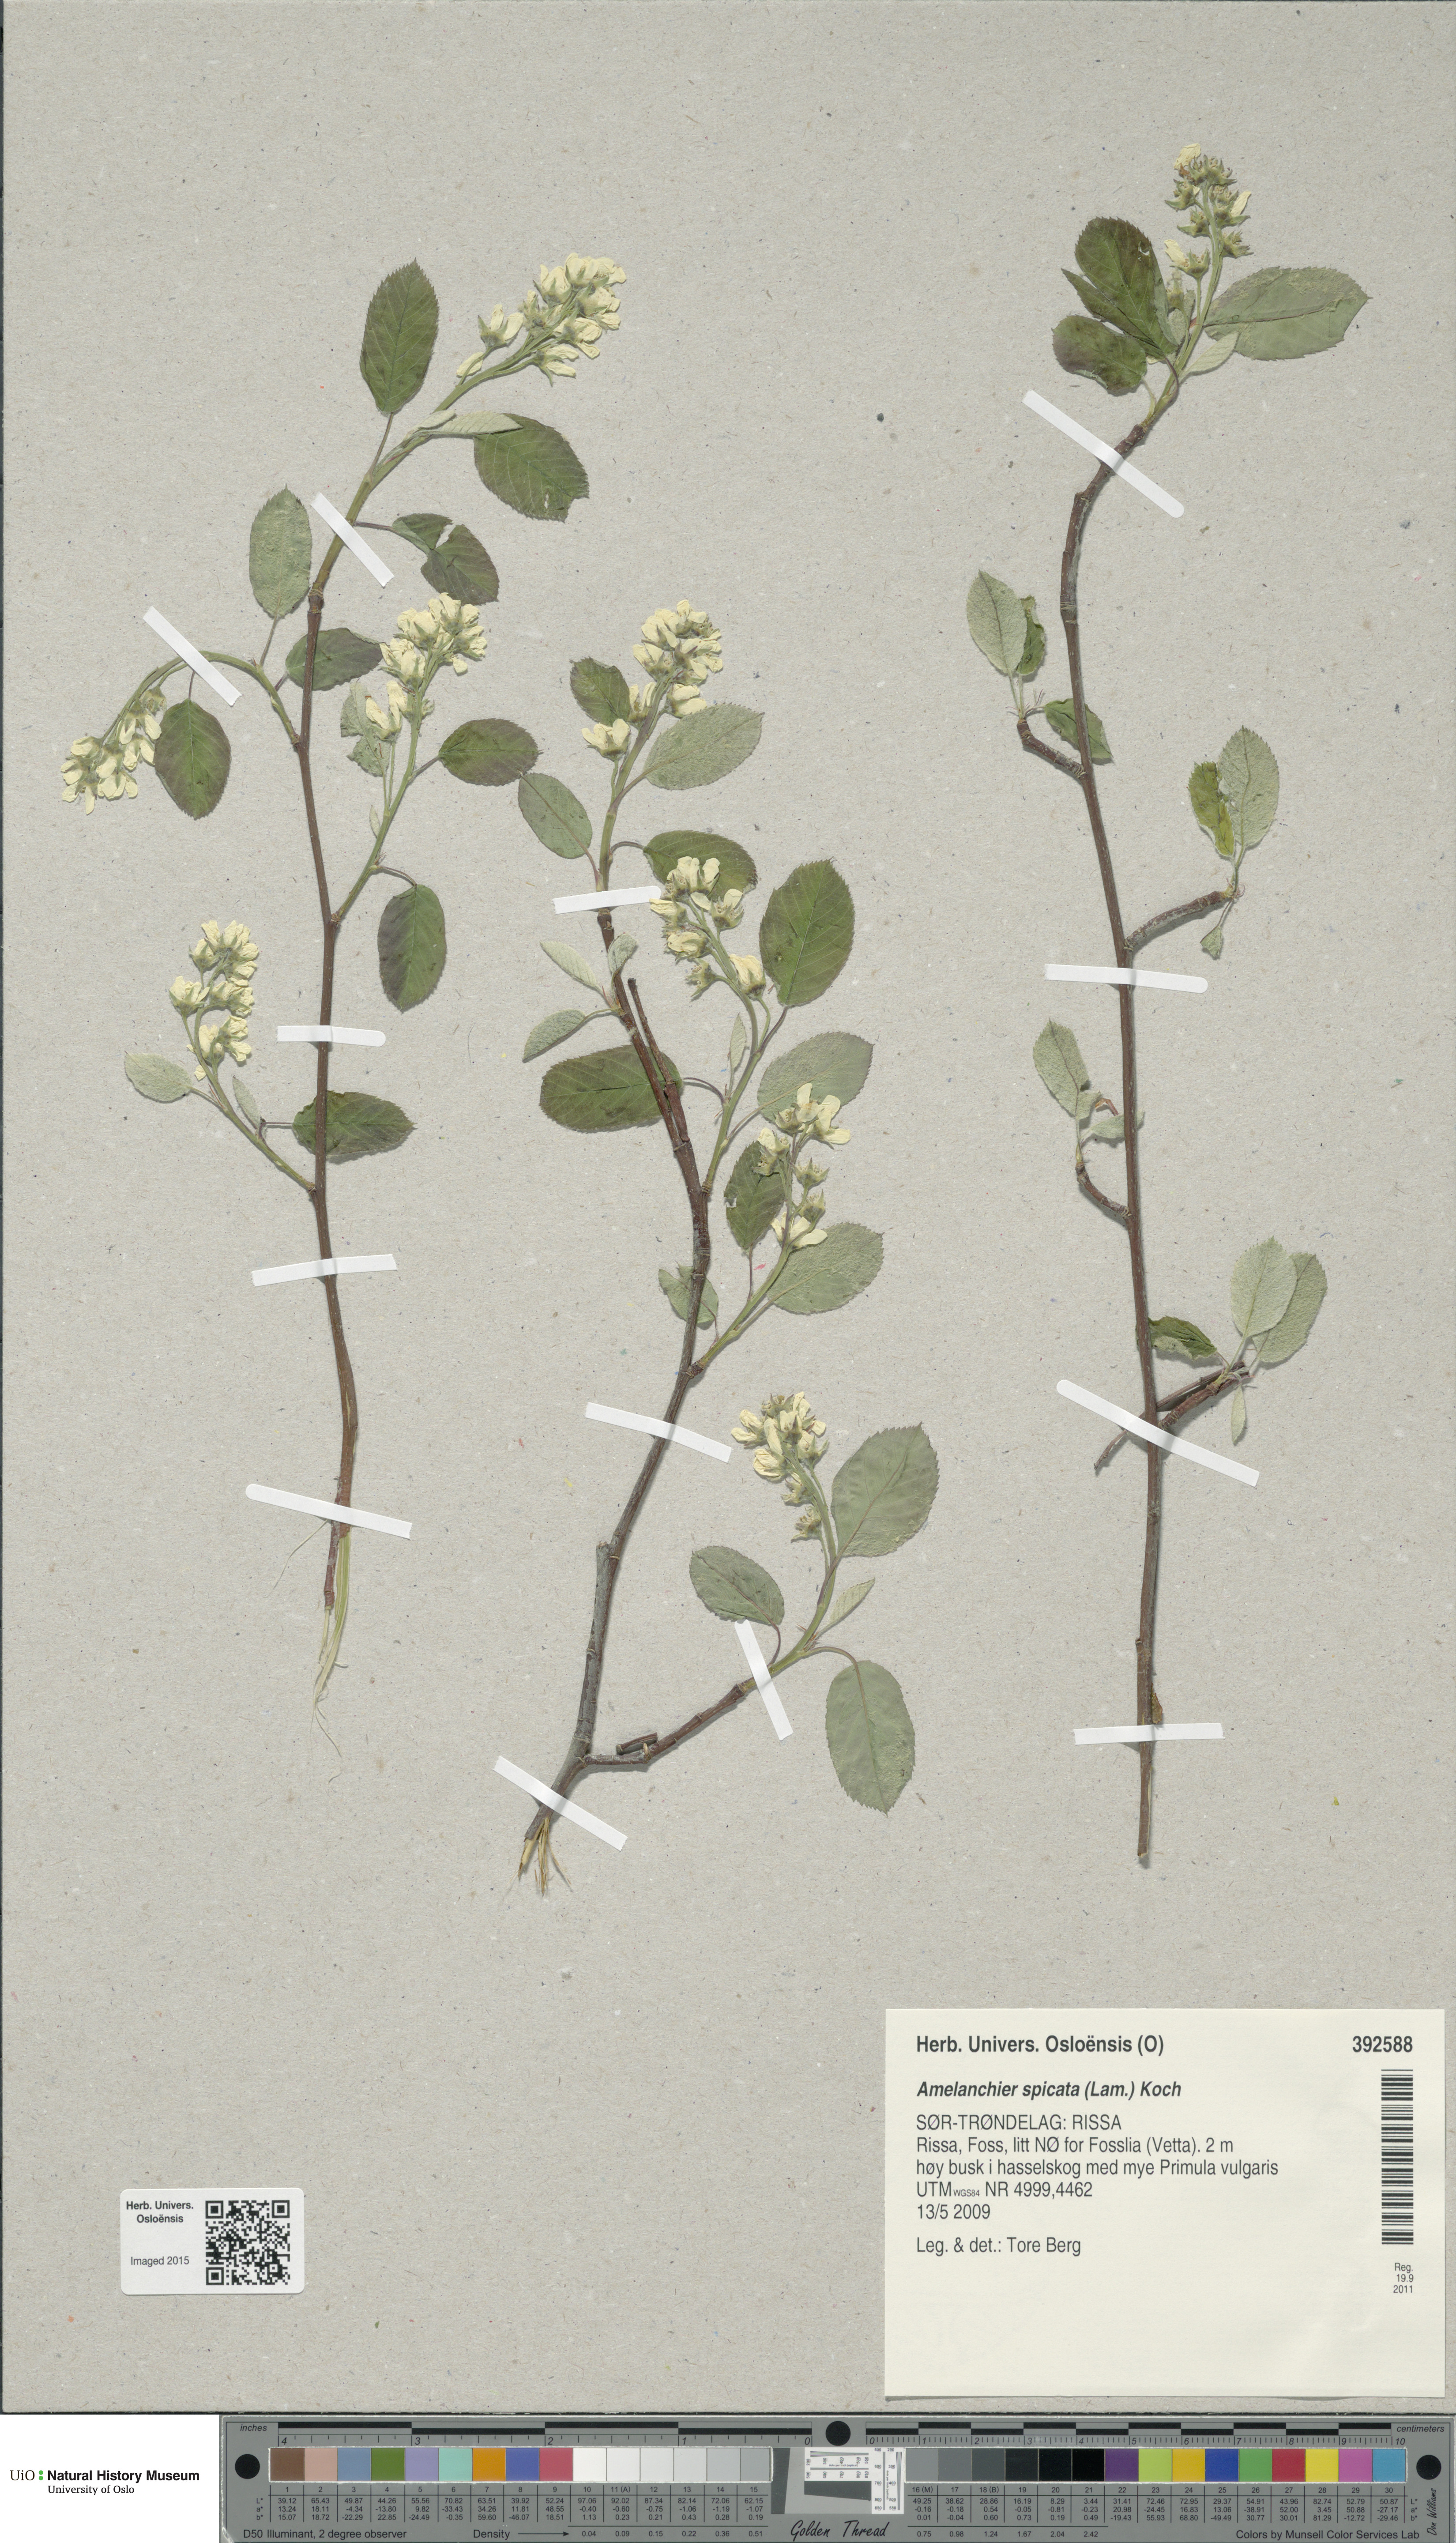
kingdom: Plantae
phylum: Tracheophyta
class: Magnoliopsida
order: Rosales
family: Rosaceae
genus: Amelanchier
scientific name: Amelanchier humilis
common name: Low juneberry
